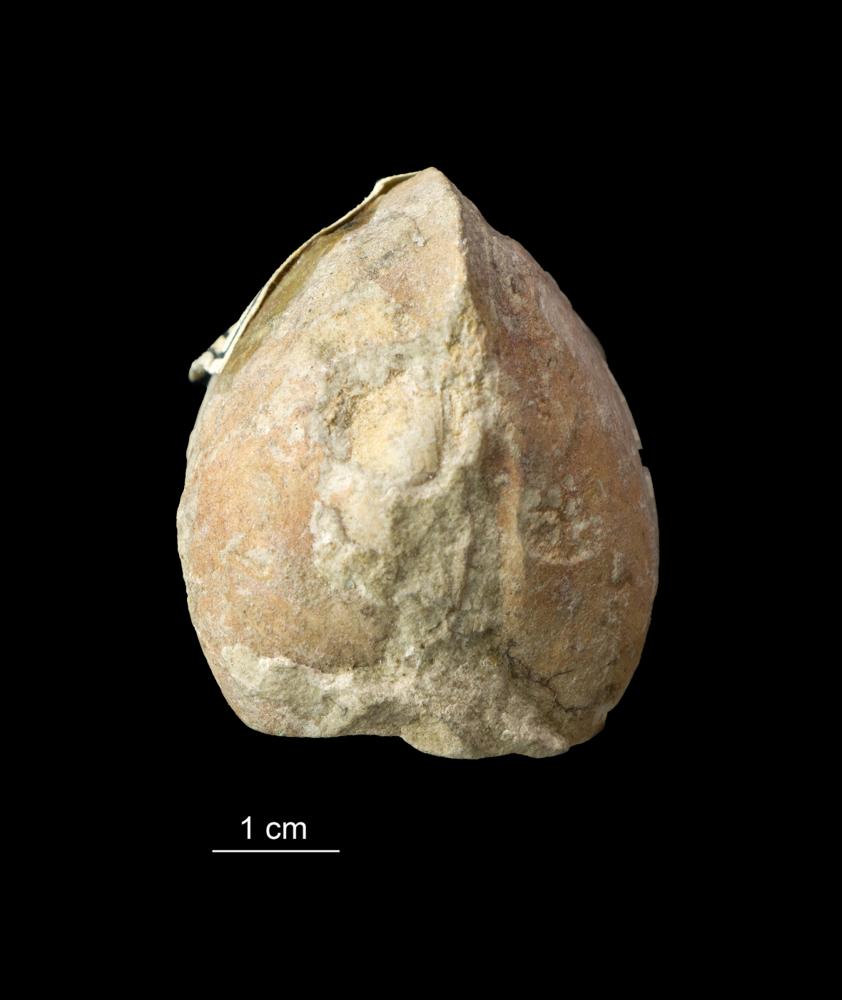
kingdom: Animalia
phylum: Mollusca
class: Bivalvia
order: Modiomorphida
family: Modiomorphidae
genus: Modiolopsis
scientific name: Modiolopsis
